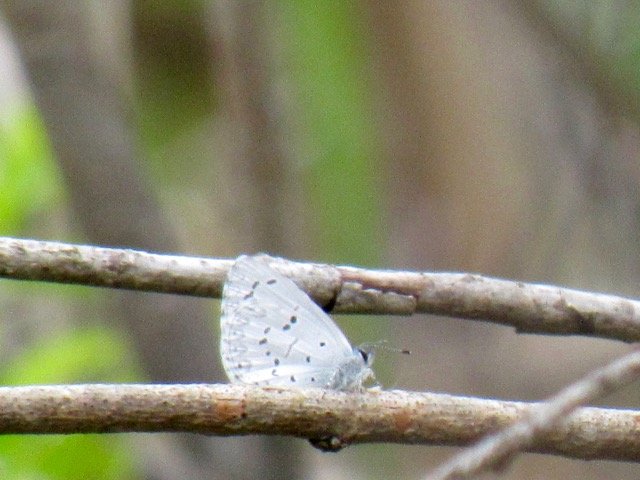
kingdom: Animalia
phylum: Arthropoda
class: Insecta
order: Lepidoptera
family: Lycaenidae
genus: Celastrina
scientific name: Celastrina lucia
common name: Northern Spring Azure
